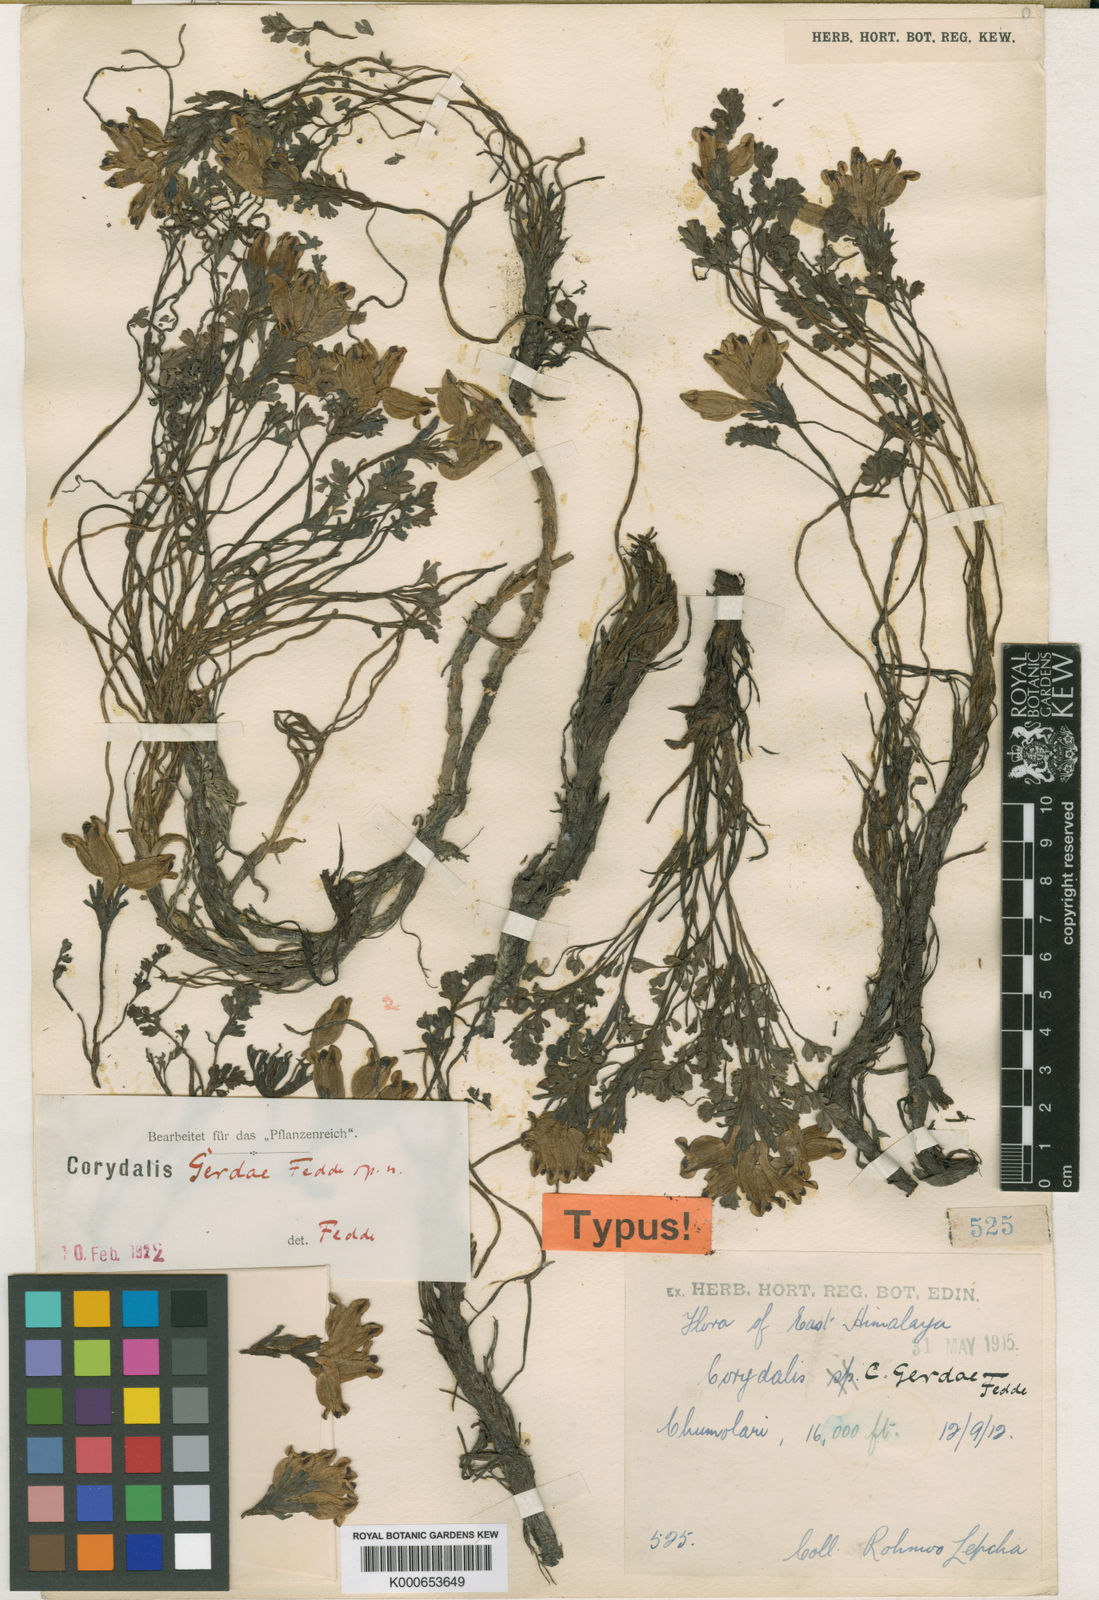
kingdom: Plantae
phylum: Tracheophyta
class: Magnoliopsida
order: Ranunculales
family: Papaveraceae
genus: Corydalis
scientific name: Corydalis latiflora
